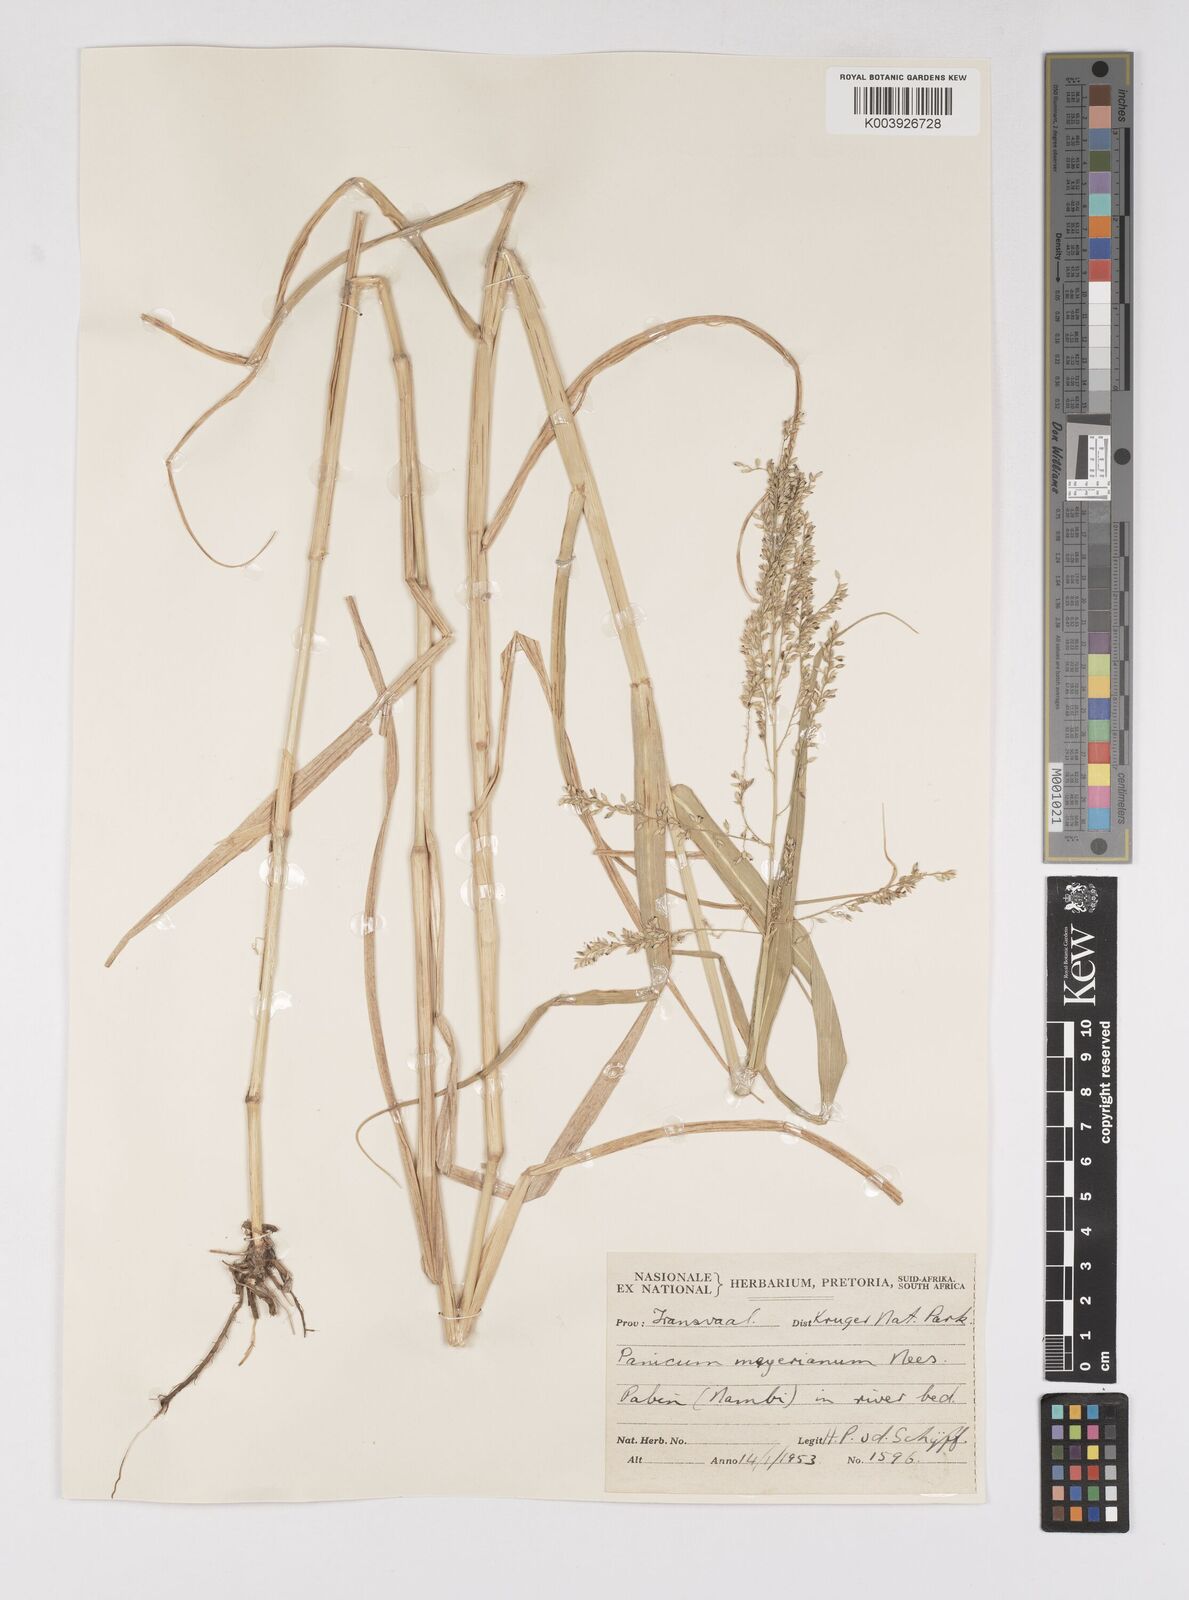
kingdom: Plantae
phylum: Tracheophyta
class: Liliopsida
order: Poales
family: Poaceae
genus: Eriochloa
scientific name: Eriochloa meyeriana
